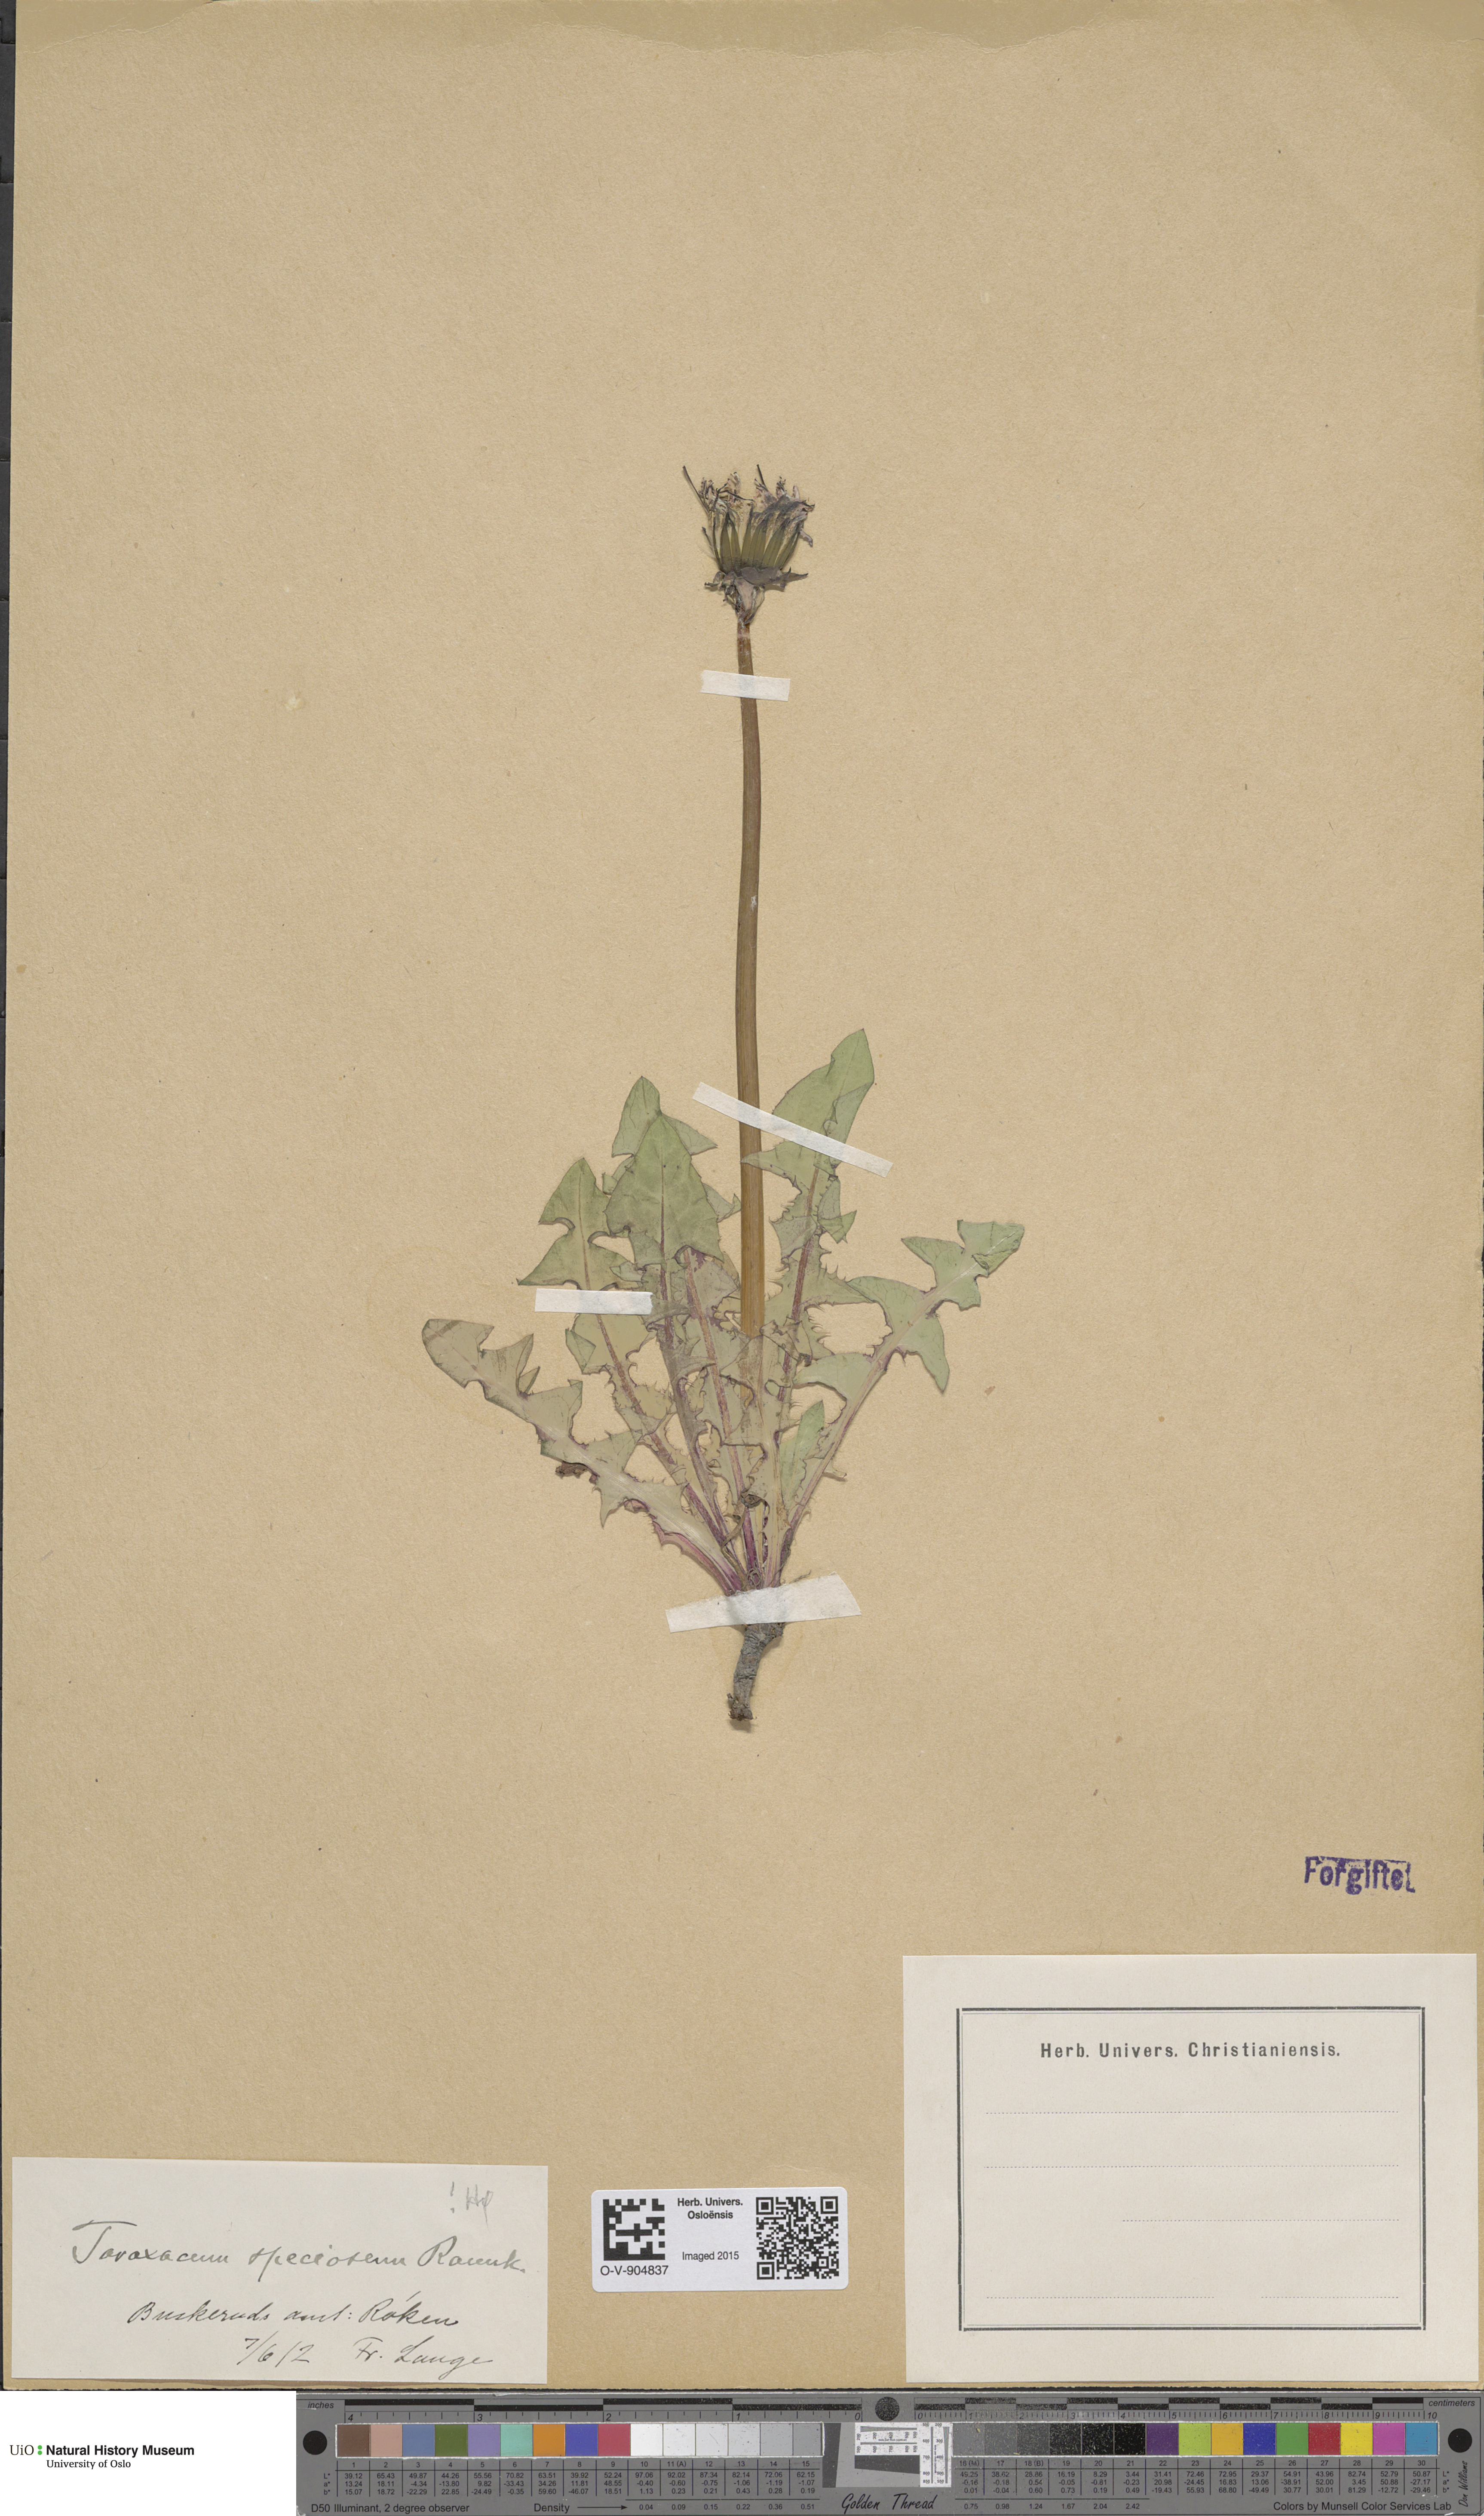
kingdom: Plantae
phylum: Tracheophyta
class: Magnoliopsida
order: Asterales
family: Asteraceae
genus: Taraxacum
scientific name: Taraxacum speciosum
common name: Massive dandelion
